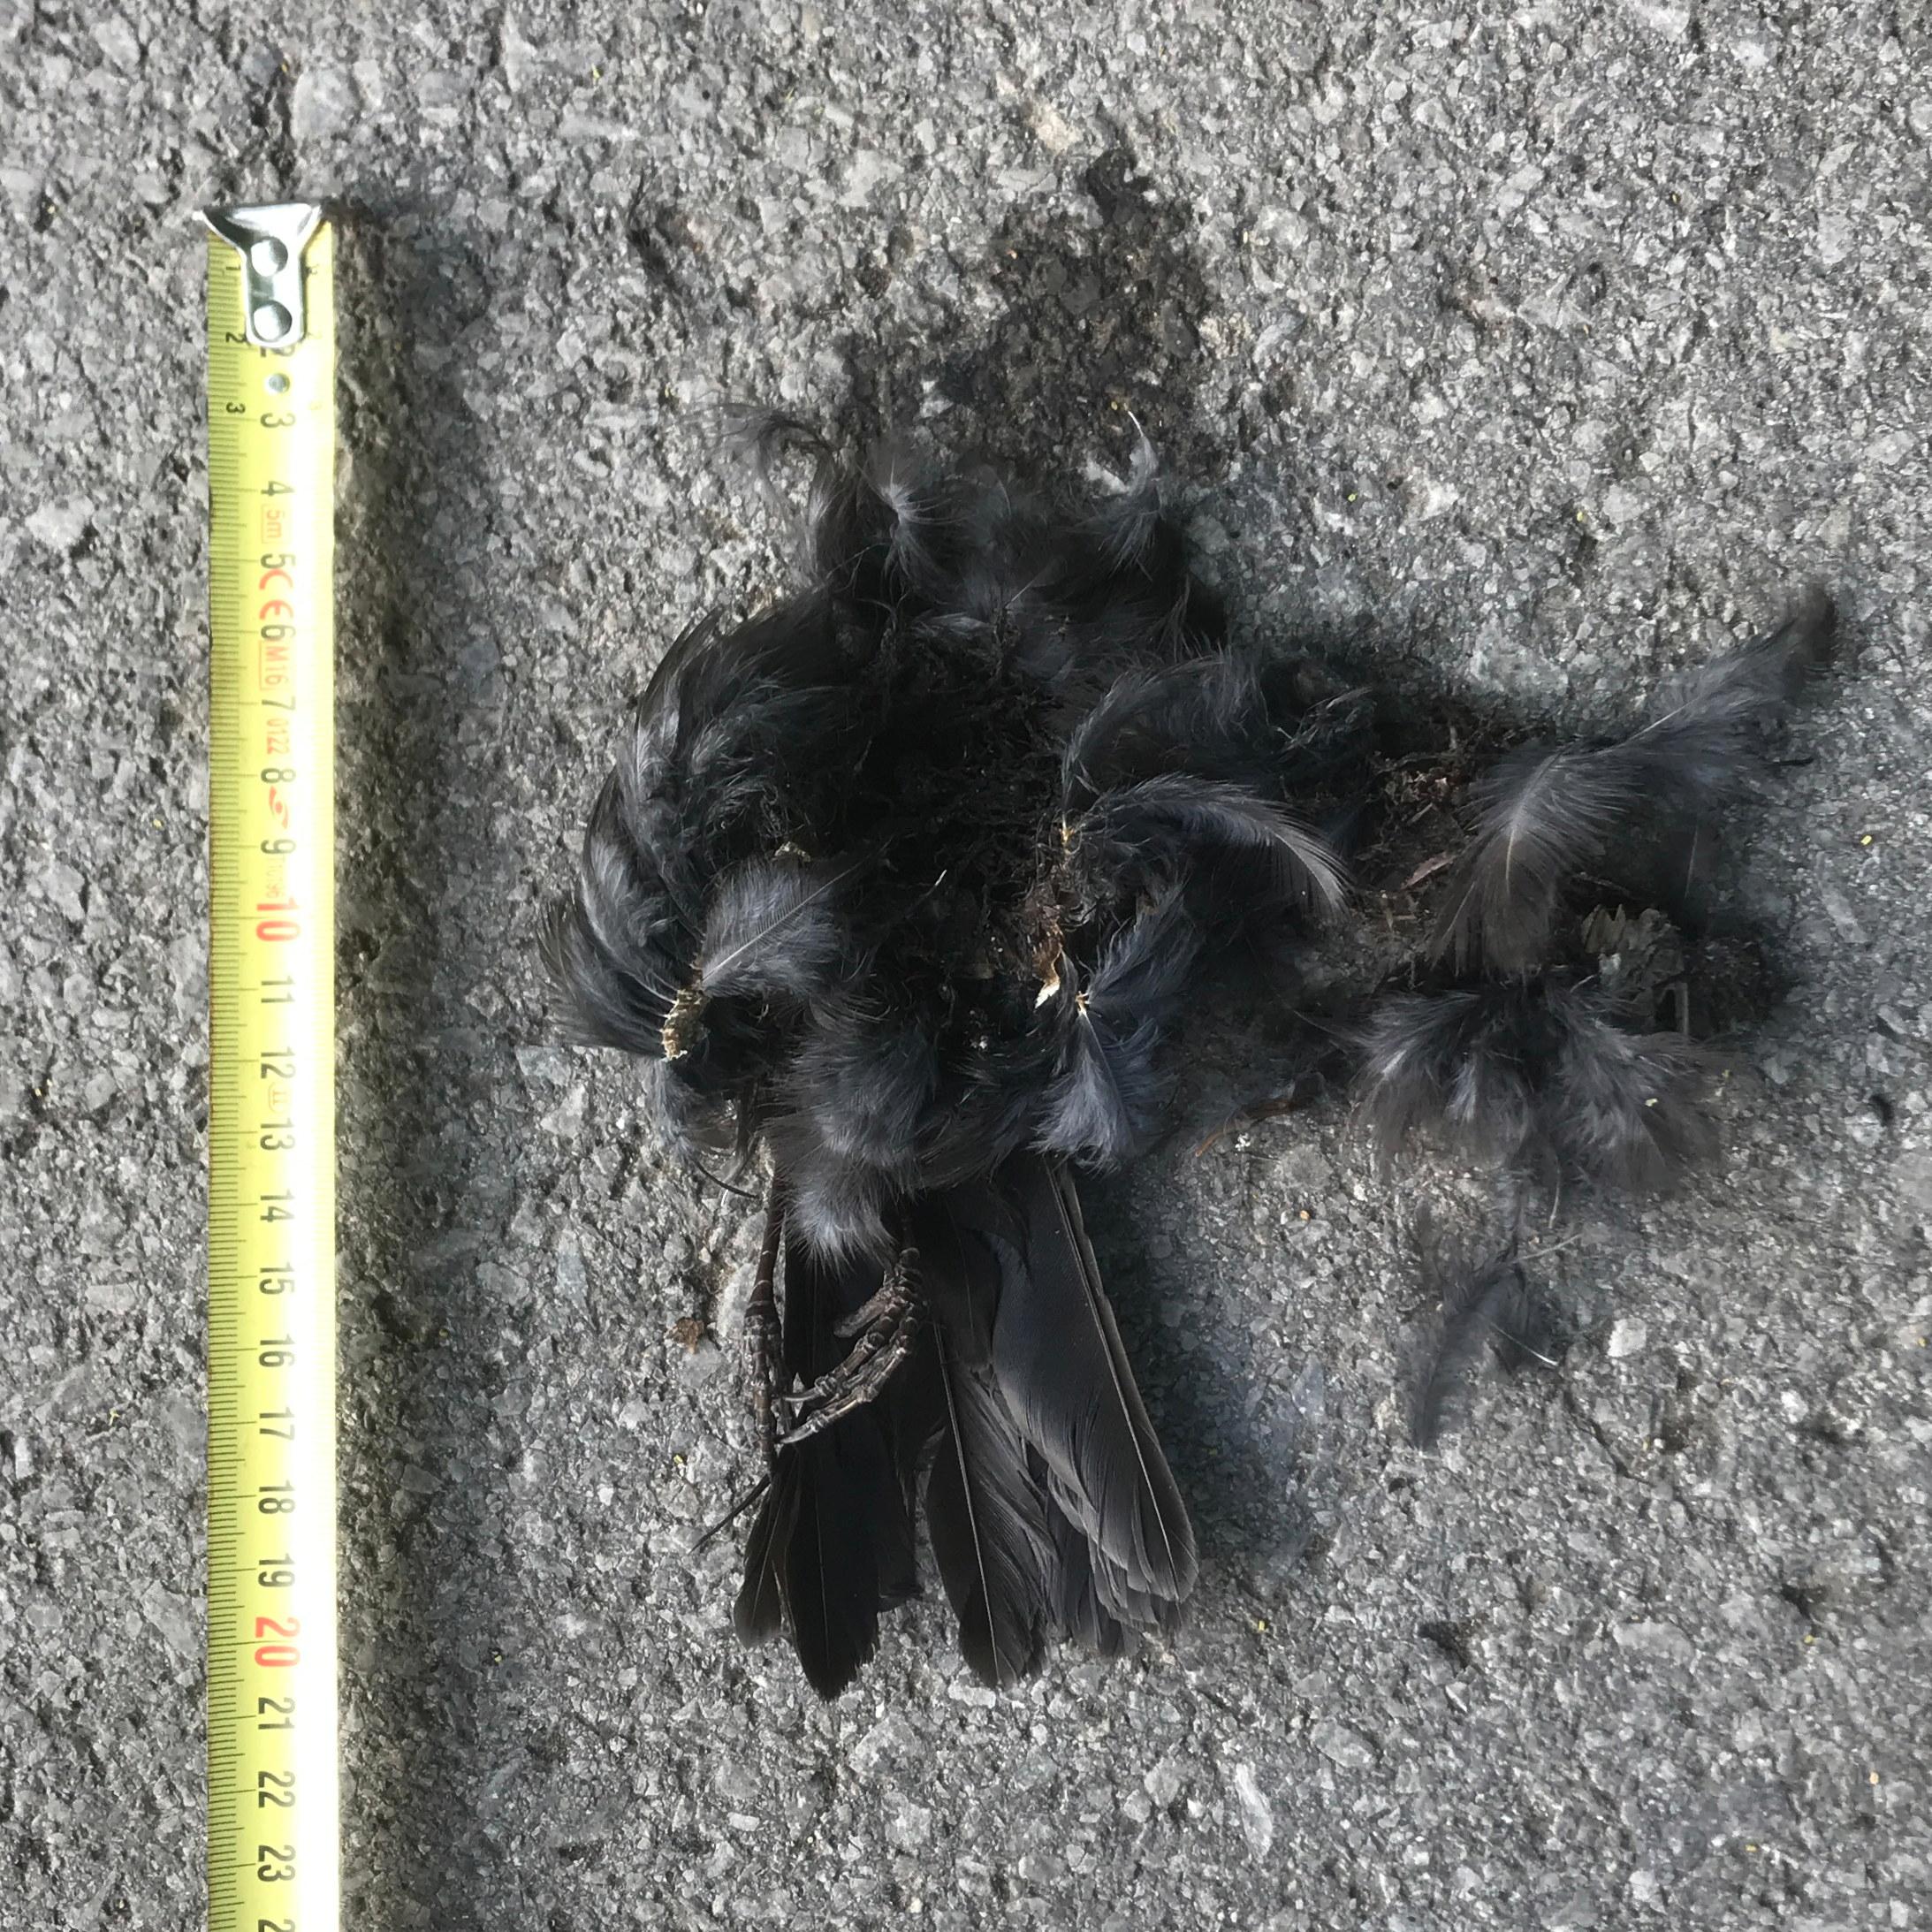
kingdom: Animalia
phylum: Chordata
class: Aves
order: Passeriformes
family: Turdidae
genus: Turdus
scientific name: Turdus merula
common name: Common blackbird
